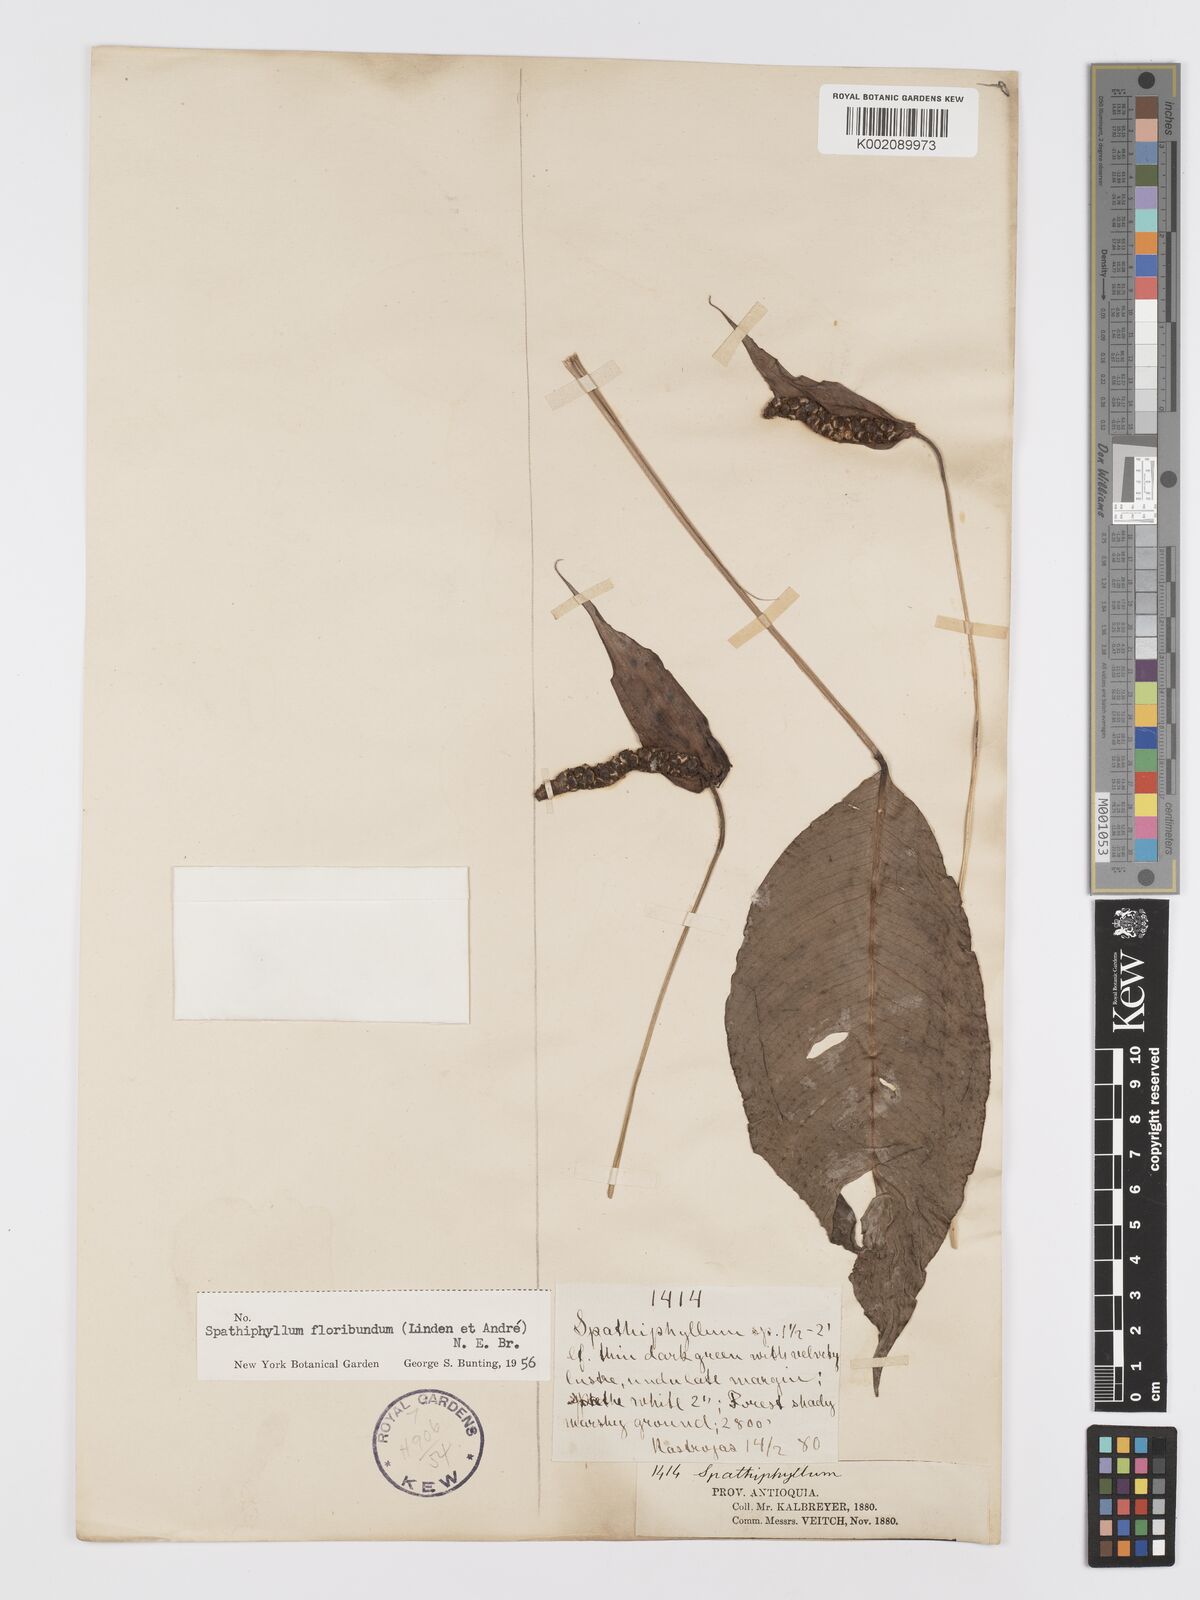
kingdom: Plantae
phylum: Tracheophyta
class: Liliopsida
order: Alismatales
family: Araceae
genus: Spathiphyllum
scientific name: Spathiphyllum floribundum
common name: Peace-lily
